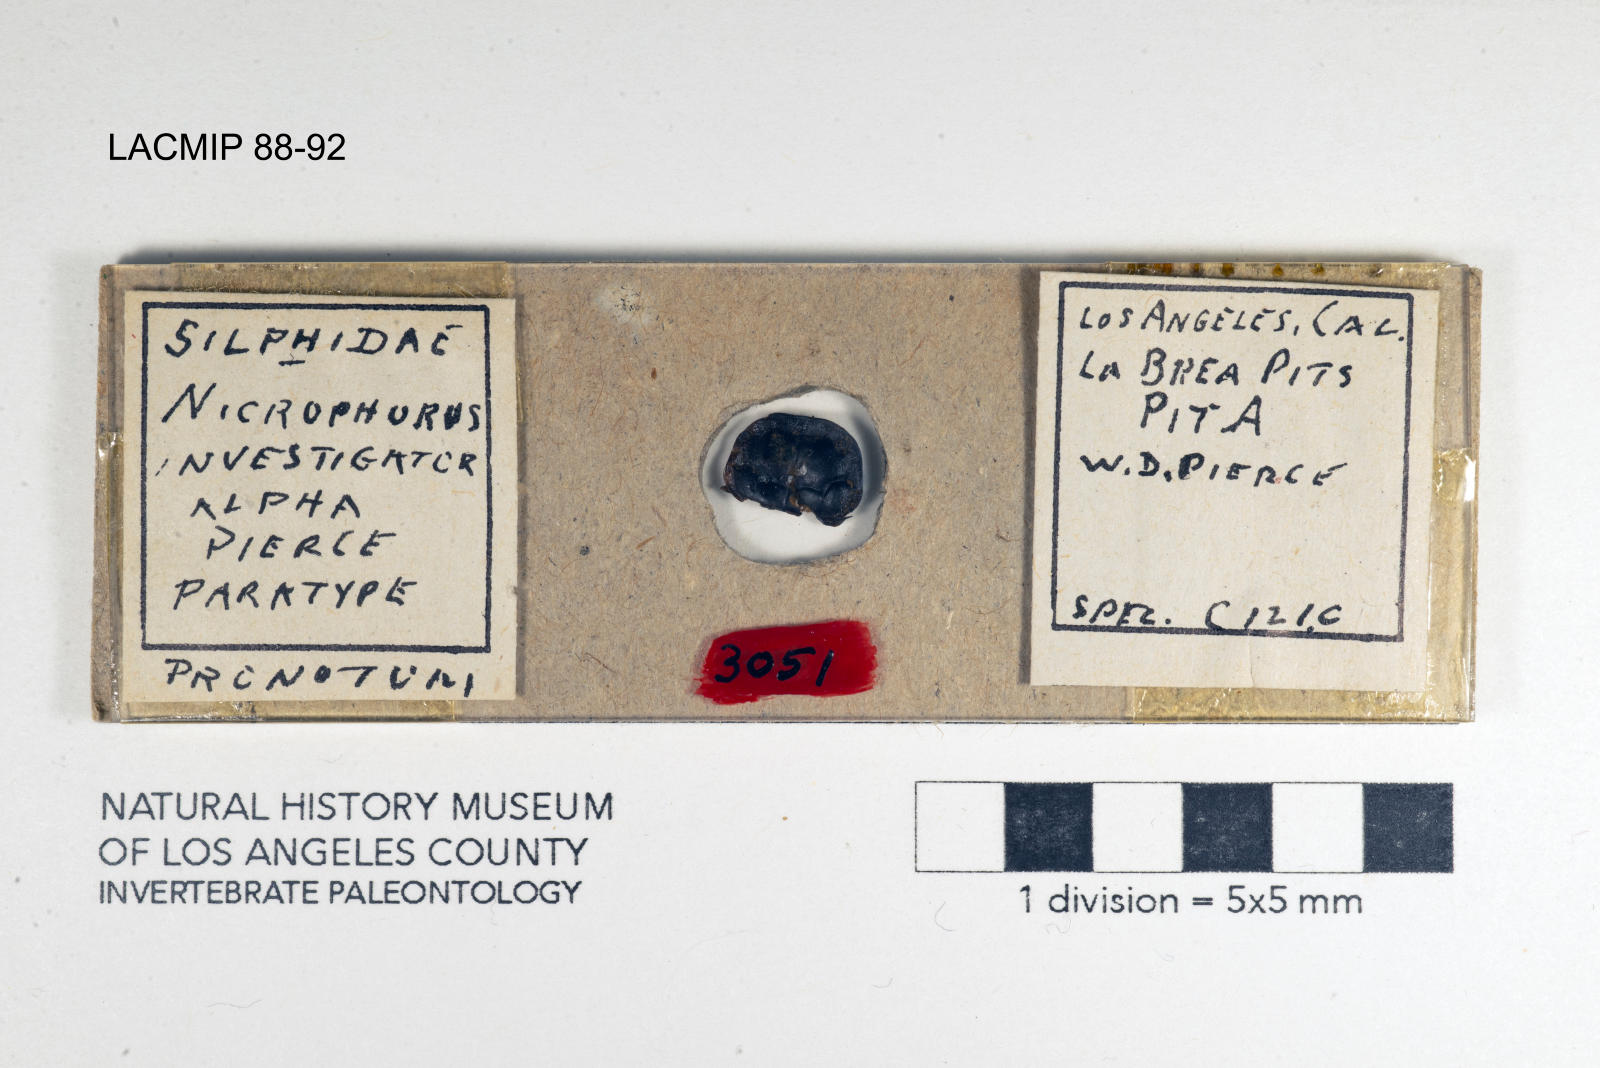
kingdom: Animalia
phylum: Arthropoda
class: Insecta
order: Coleoptera
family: Staphylinidae
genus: Nicrophorus
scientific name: Nicrophorus nigrita
